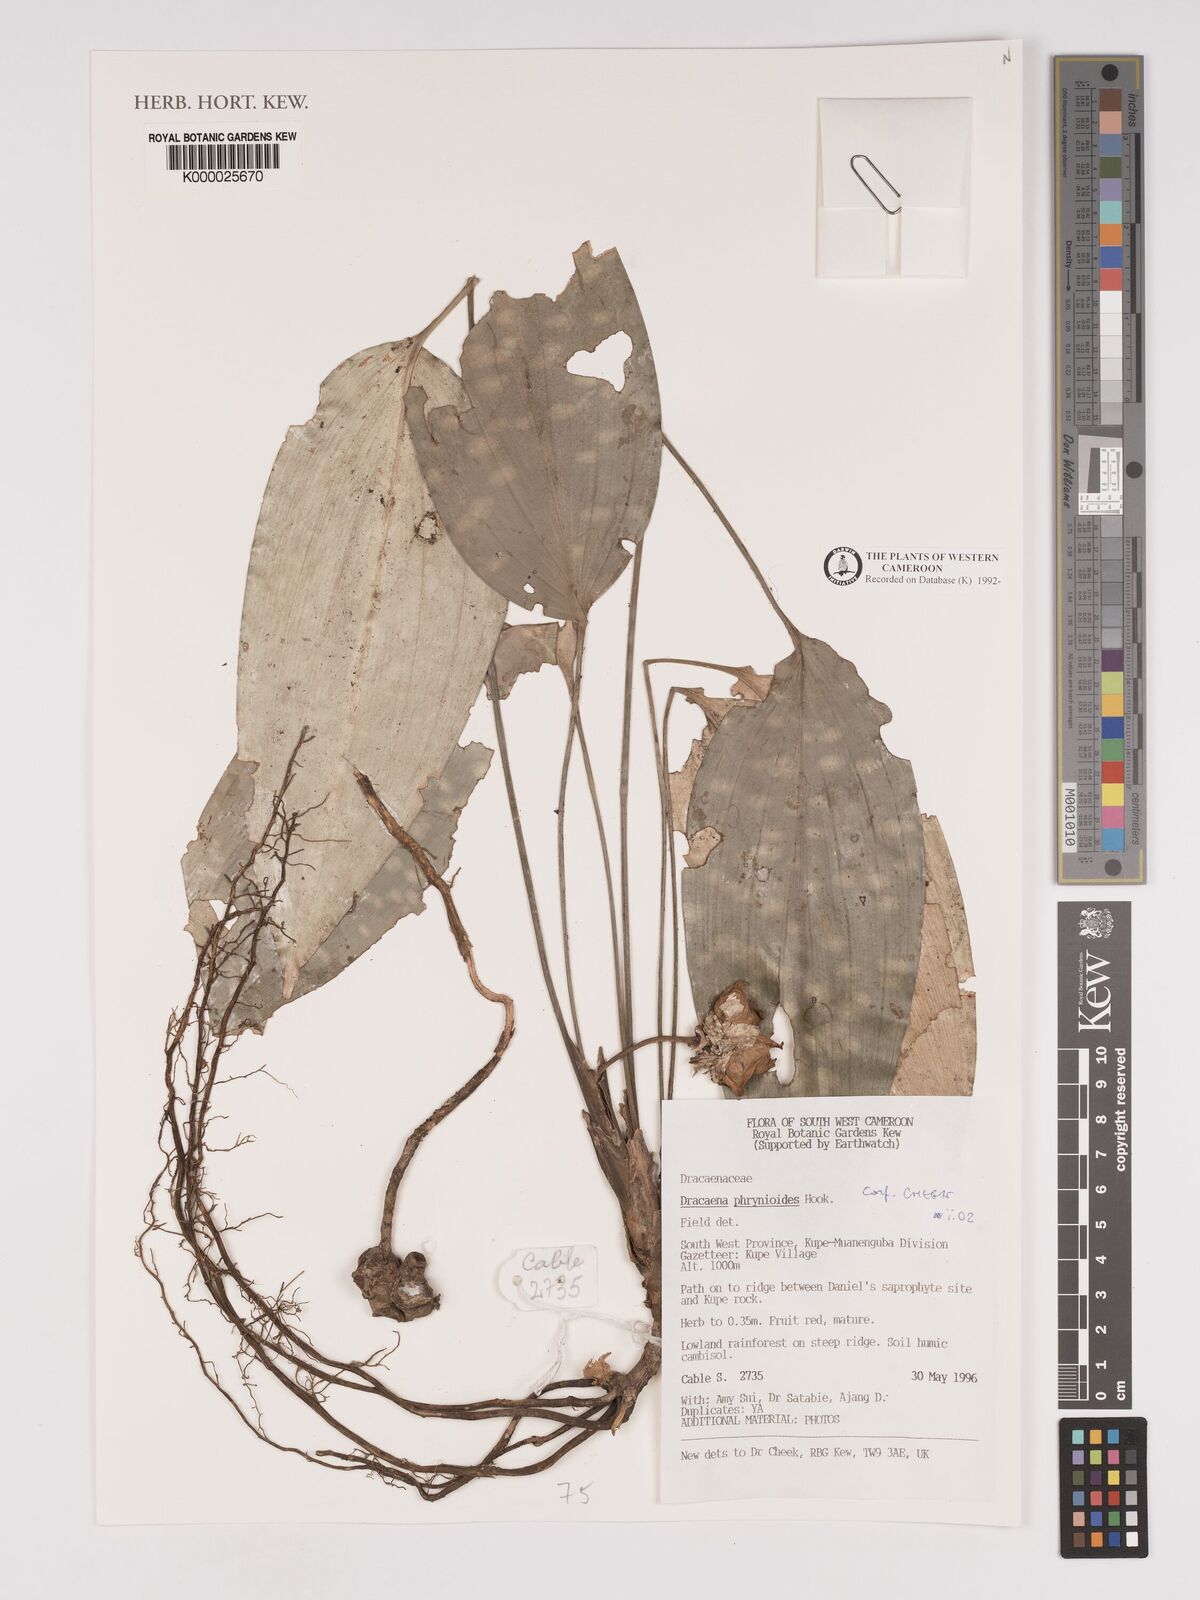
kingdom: Plantae
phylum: Tracheophyta
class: Liliopsida
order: Asparagales
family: Asparagaceae
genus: Dracaena
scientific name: Dracaena phrynioides
